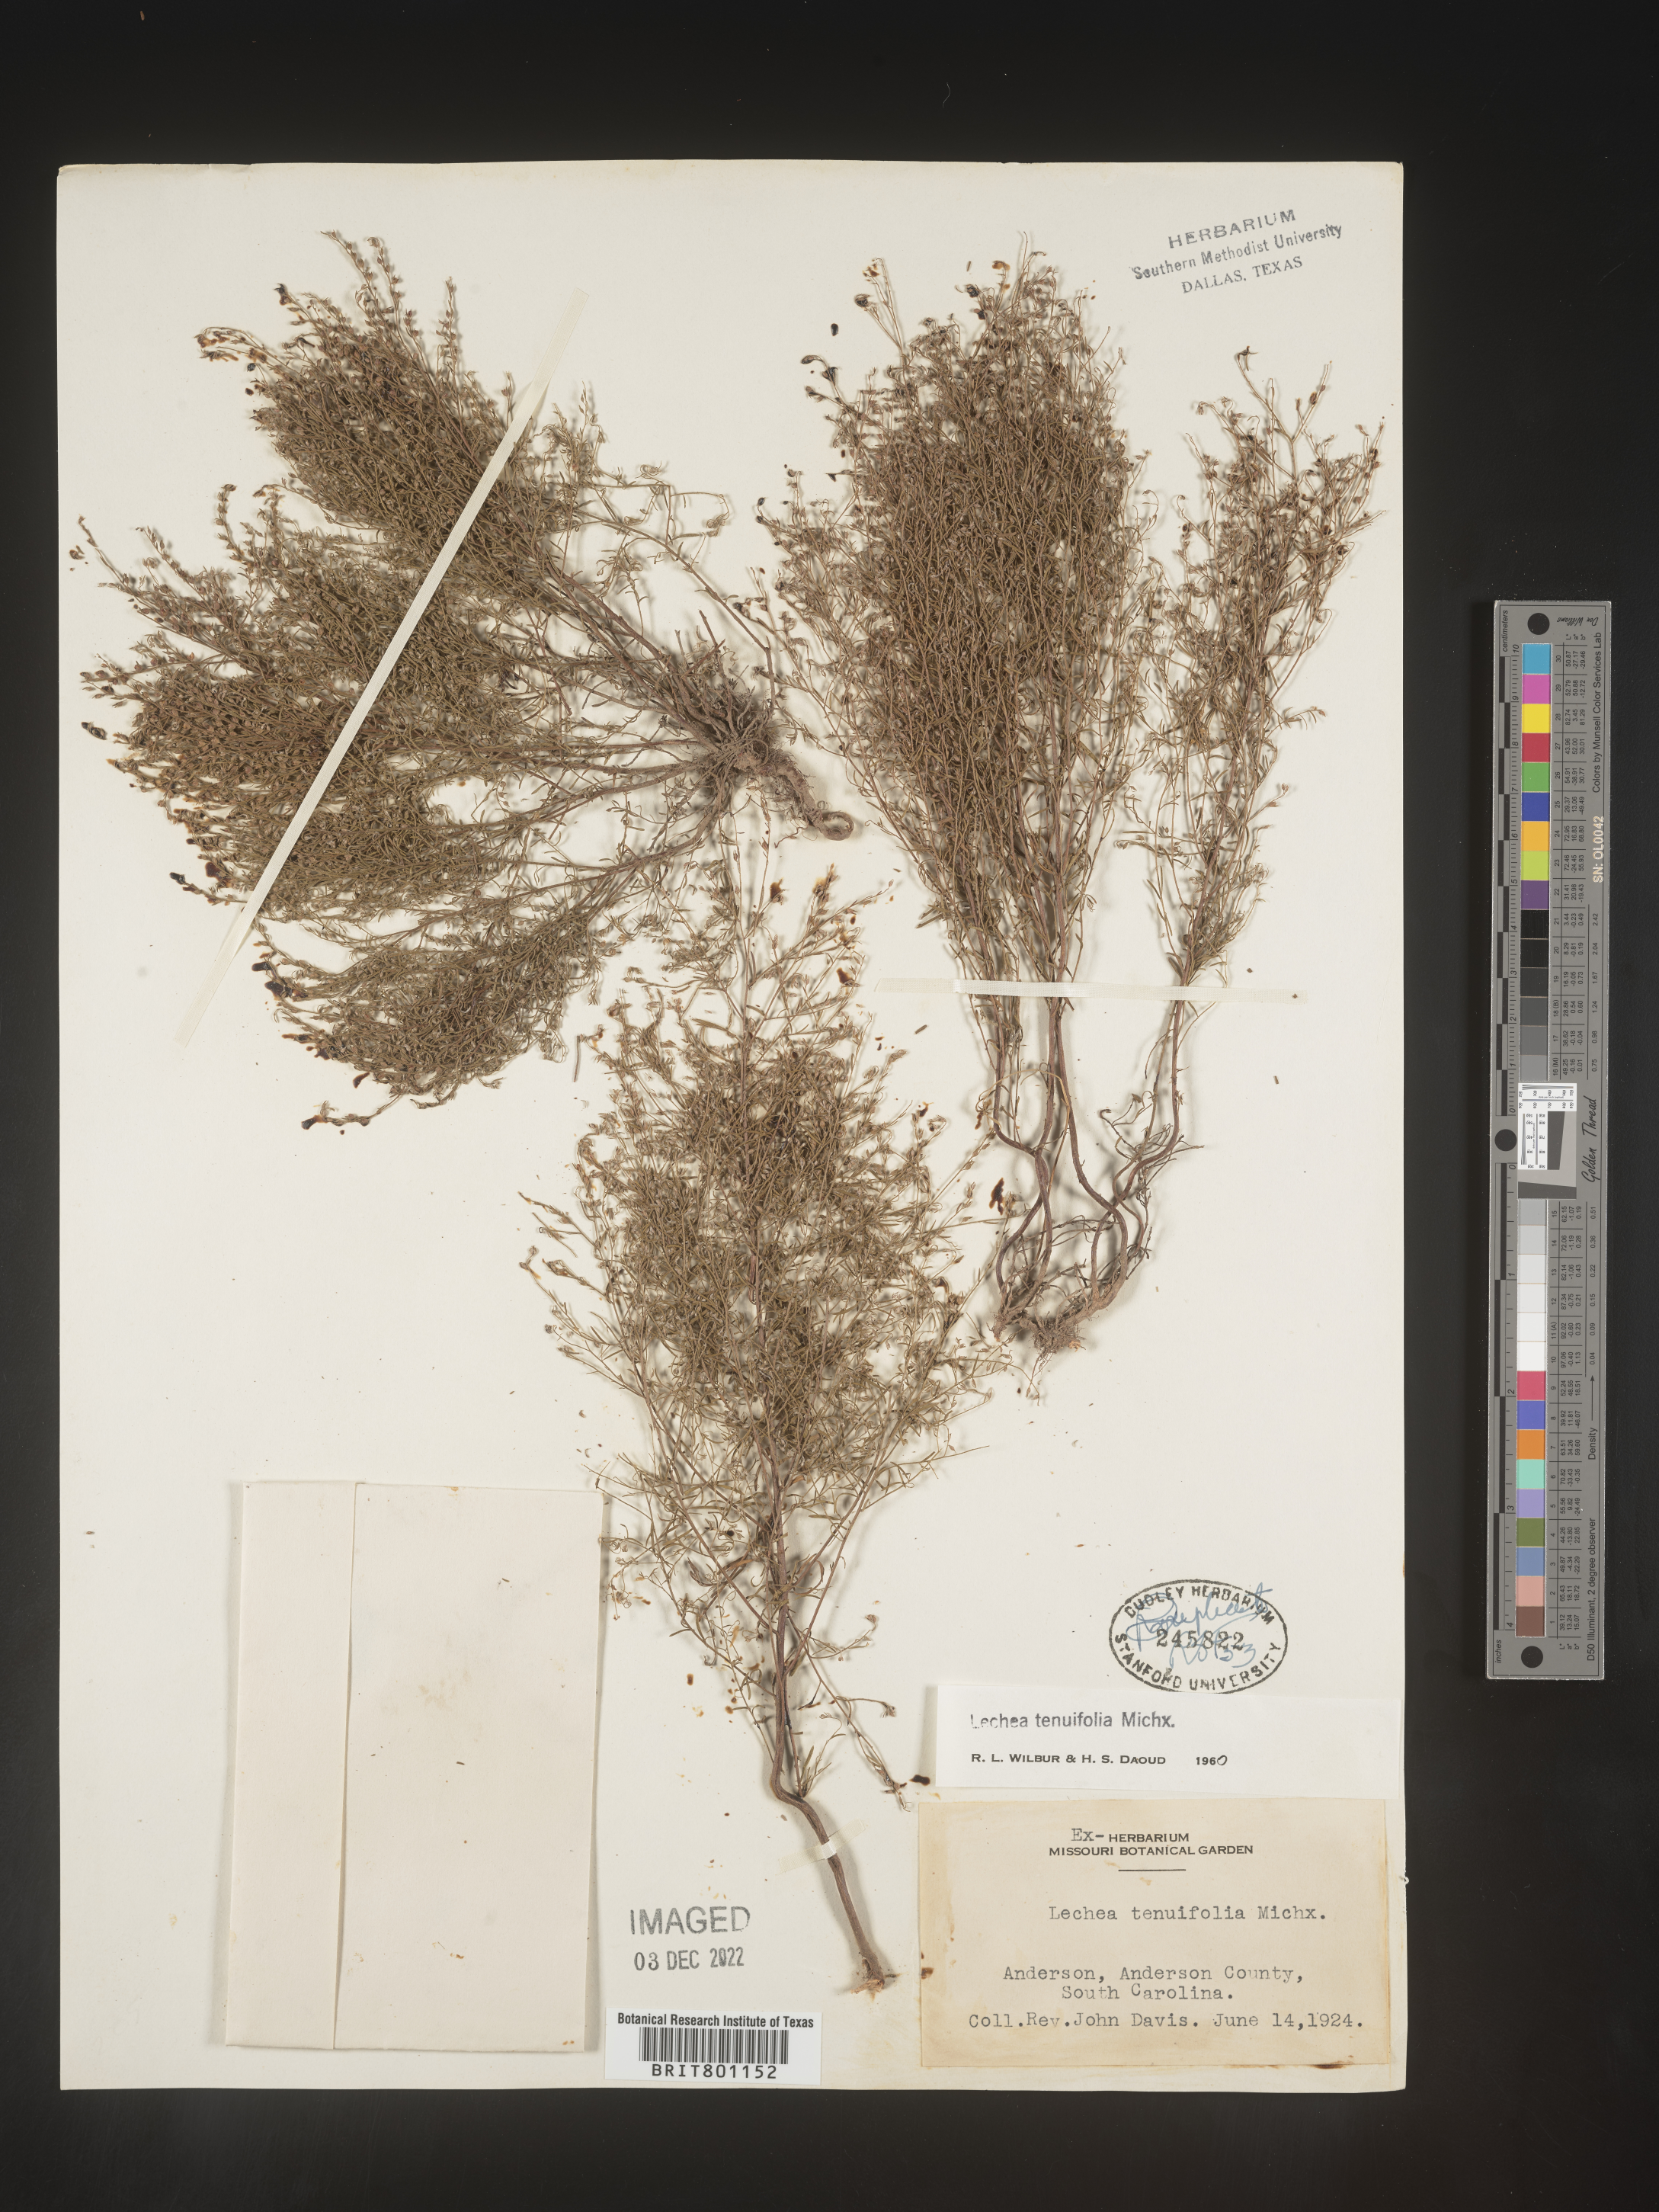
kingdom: Plantae
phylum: Tracheophyta
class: Magnoliopsida
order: Malvales
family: Cistaceae
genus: Lechea
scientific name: Lechea tenuifolia
